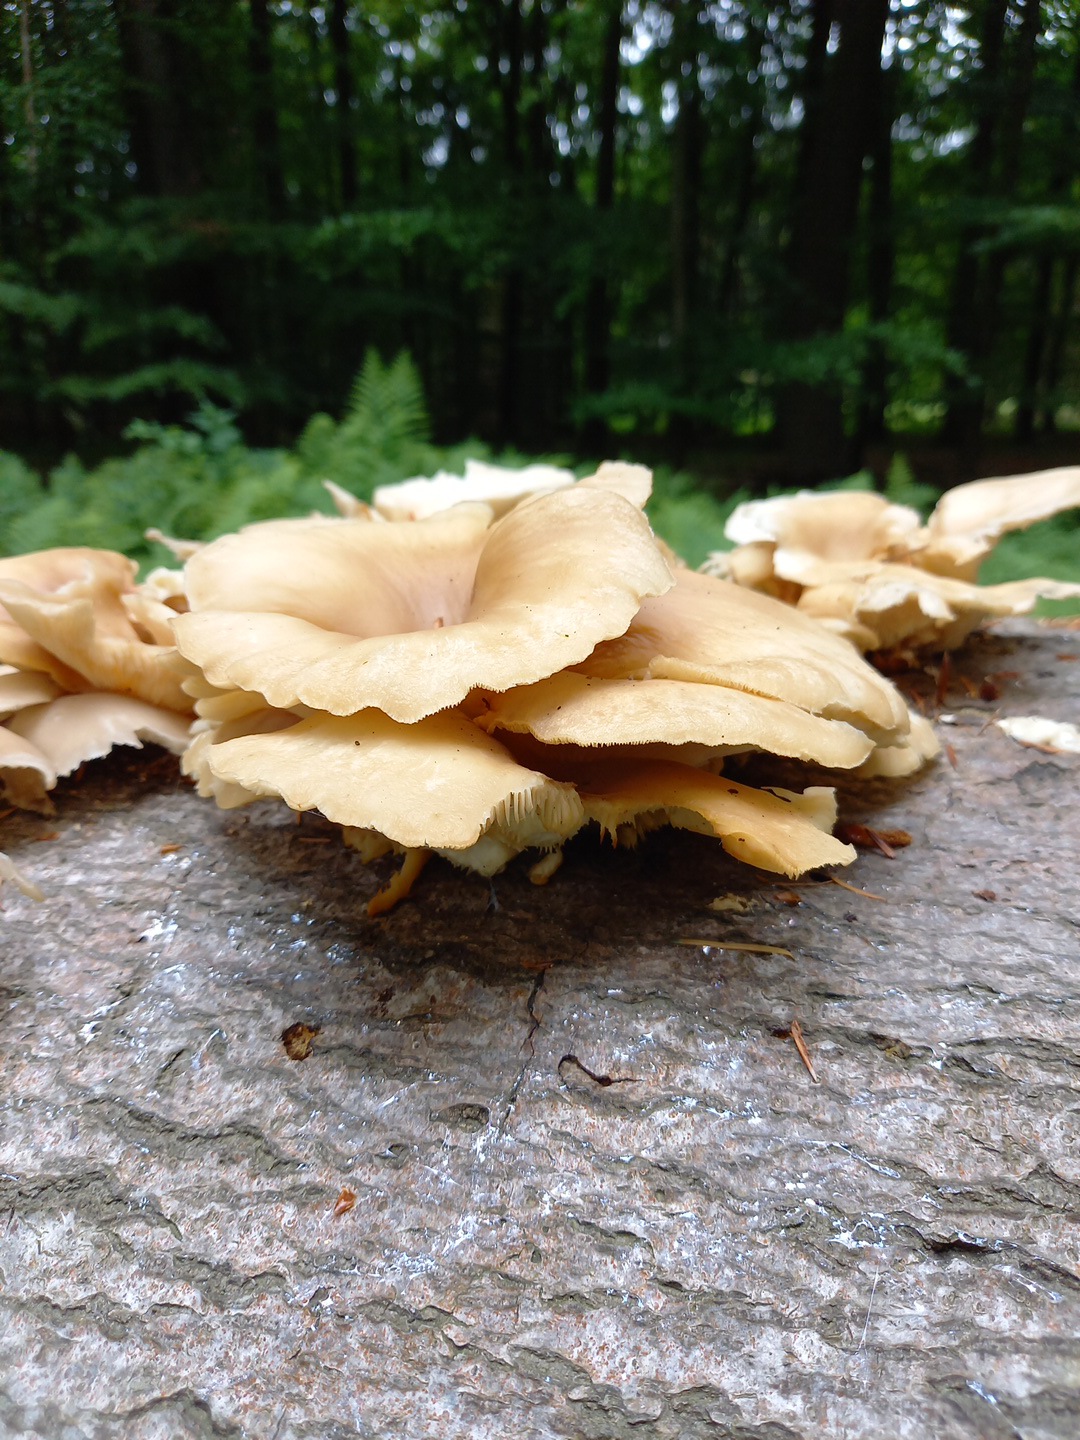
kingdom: Fungi
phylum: Basidiomycota
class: Agaricomycetes
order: Agaricales
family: Pleurotaceae
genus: Pleurotus
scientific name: Pleurotus pulmonarius
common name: sommer-østershat
